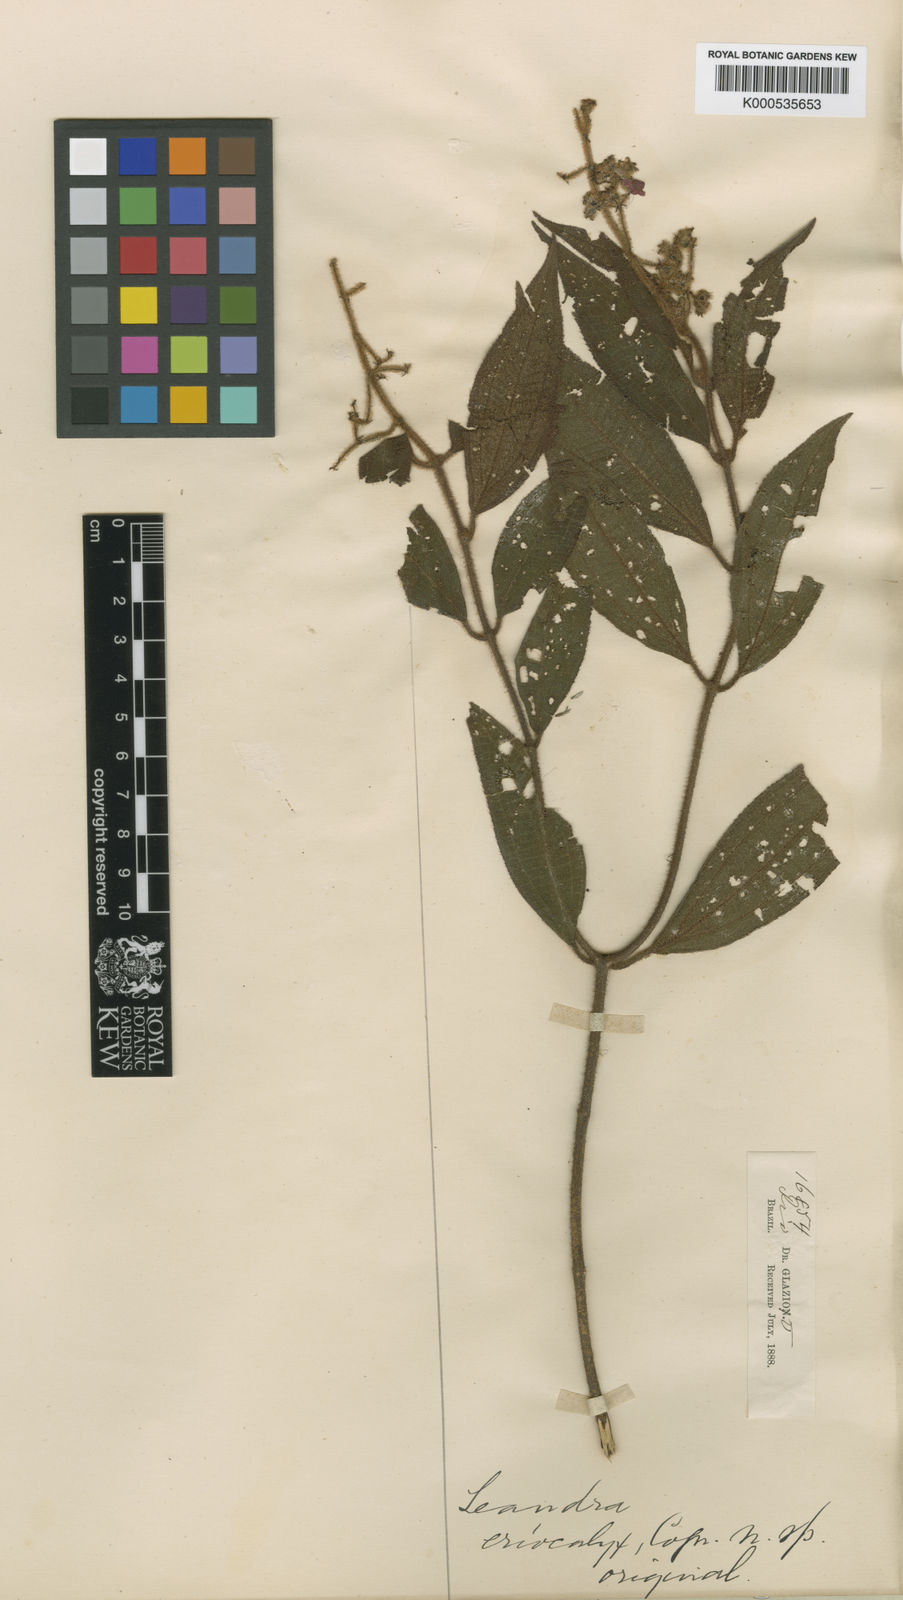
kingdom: Plantae
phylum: Tracheophyta
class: Magnoliopsida
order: Myrtales
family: Melastomataceae
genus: Miconia
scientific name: Miconia leaeriocalyx
